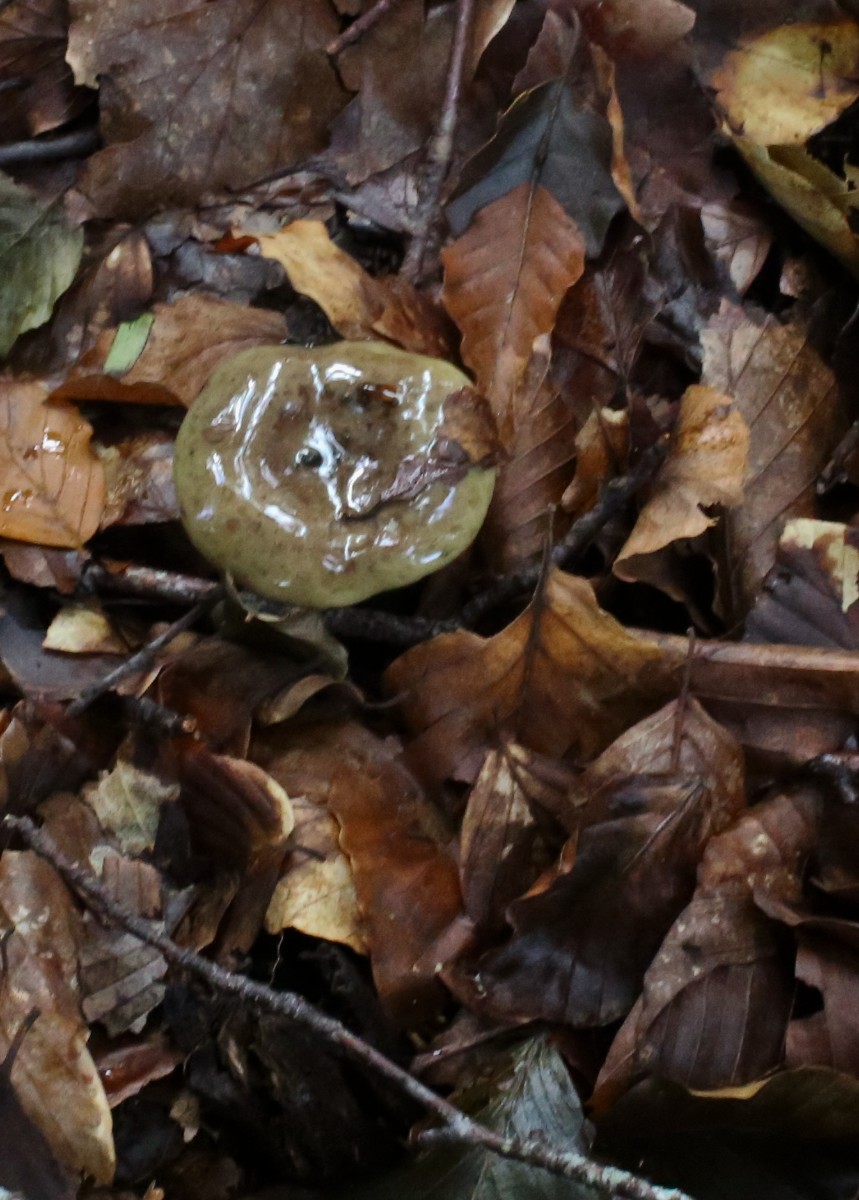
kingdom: Fungi
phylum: Basidiomycota
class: Agaricomycetes
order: Russulales
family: Russulaceae
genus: Lactarius
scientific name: Lactarius blennius
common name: dråbeplettet mælkehat
